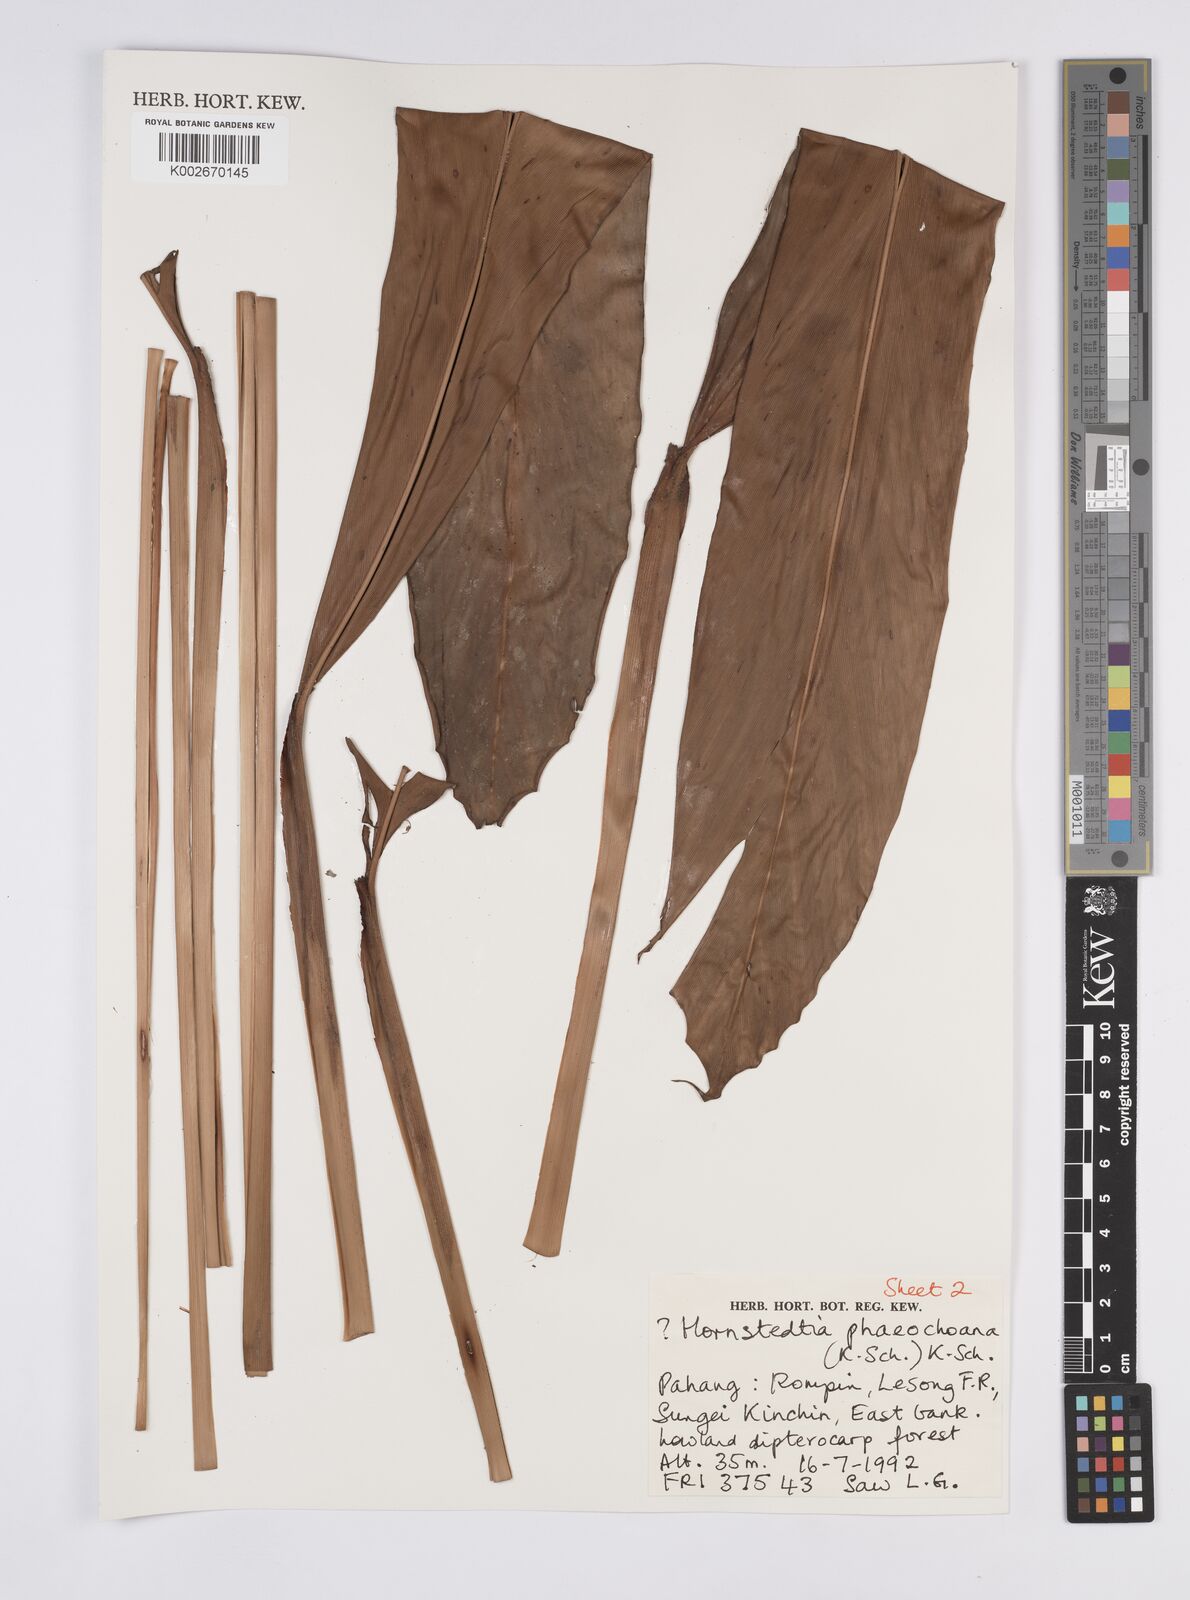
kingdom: Plantae
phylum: Tracheophyta
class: Liliopsida
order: Zingiberales
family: Zingiberaceae
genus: Hornstedtia
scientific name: Hornstedtia phaeochoana
